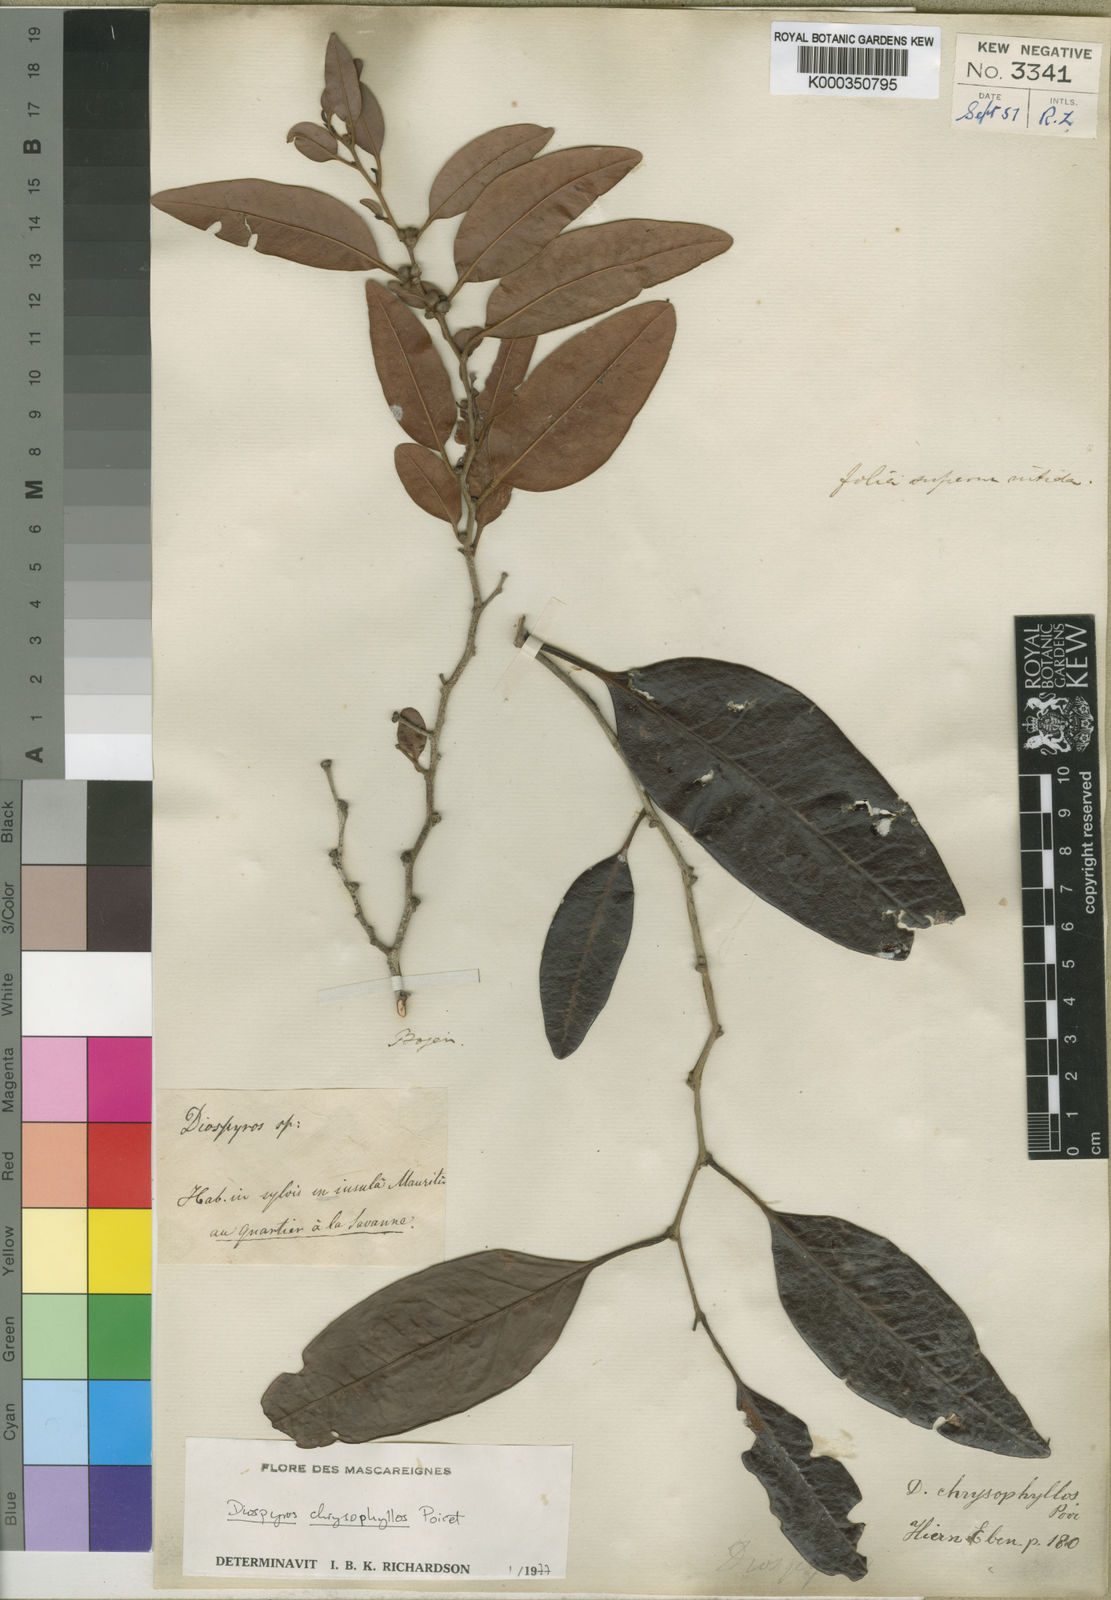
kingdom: Plantae
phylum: Tracheophyta
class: Magnoliopsida
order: Ericales
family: Ebenaceae
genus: Diospyros
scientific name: Diospyros chrysophyllos
